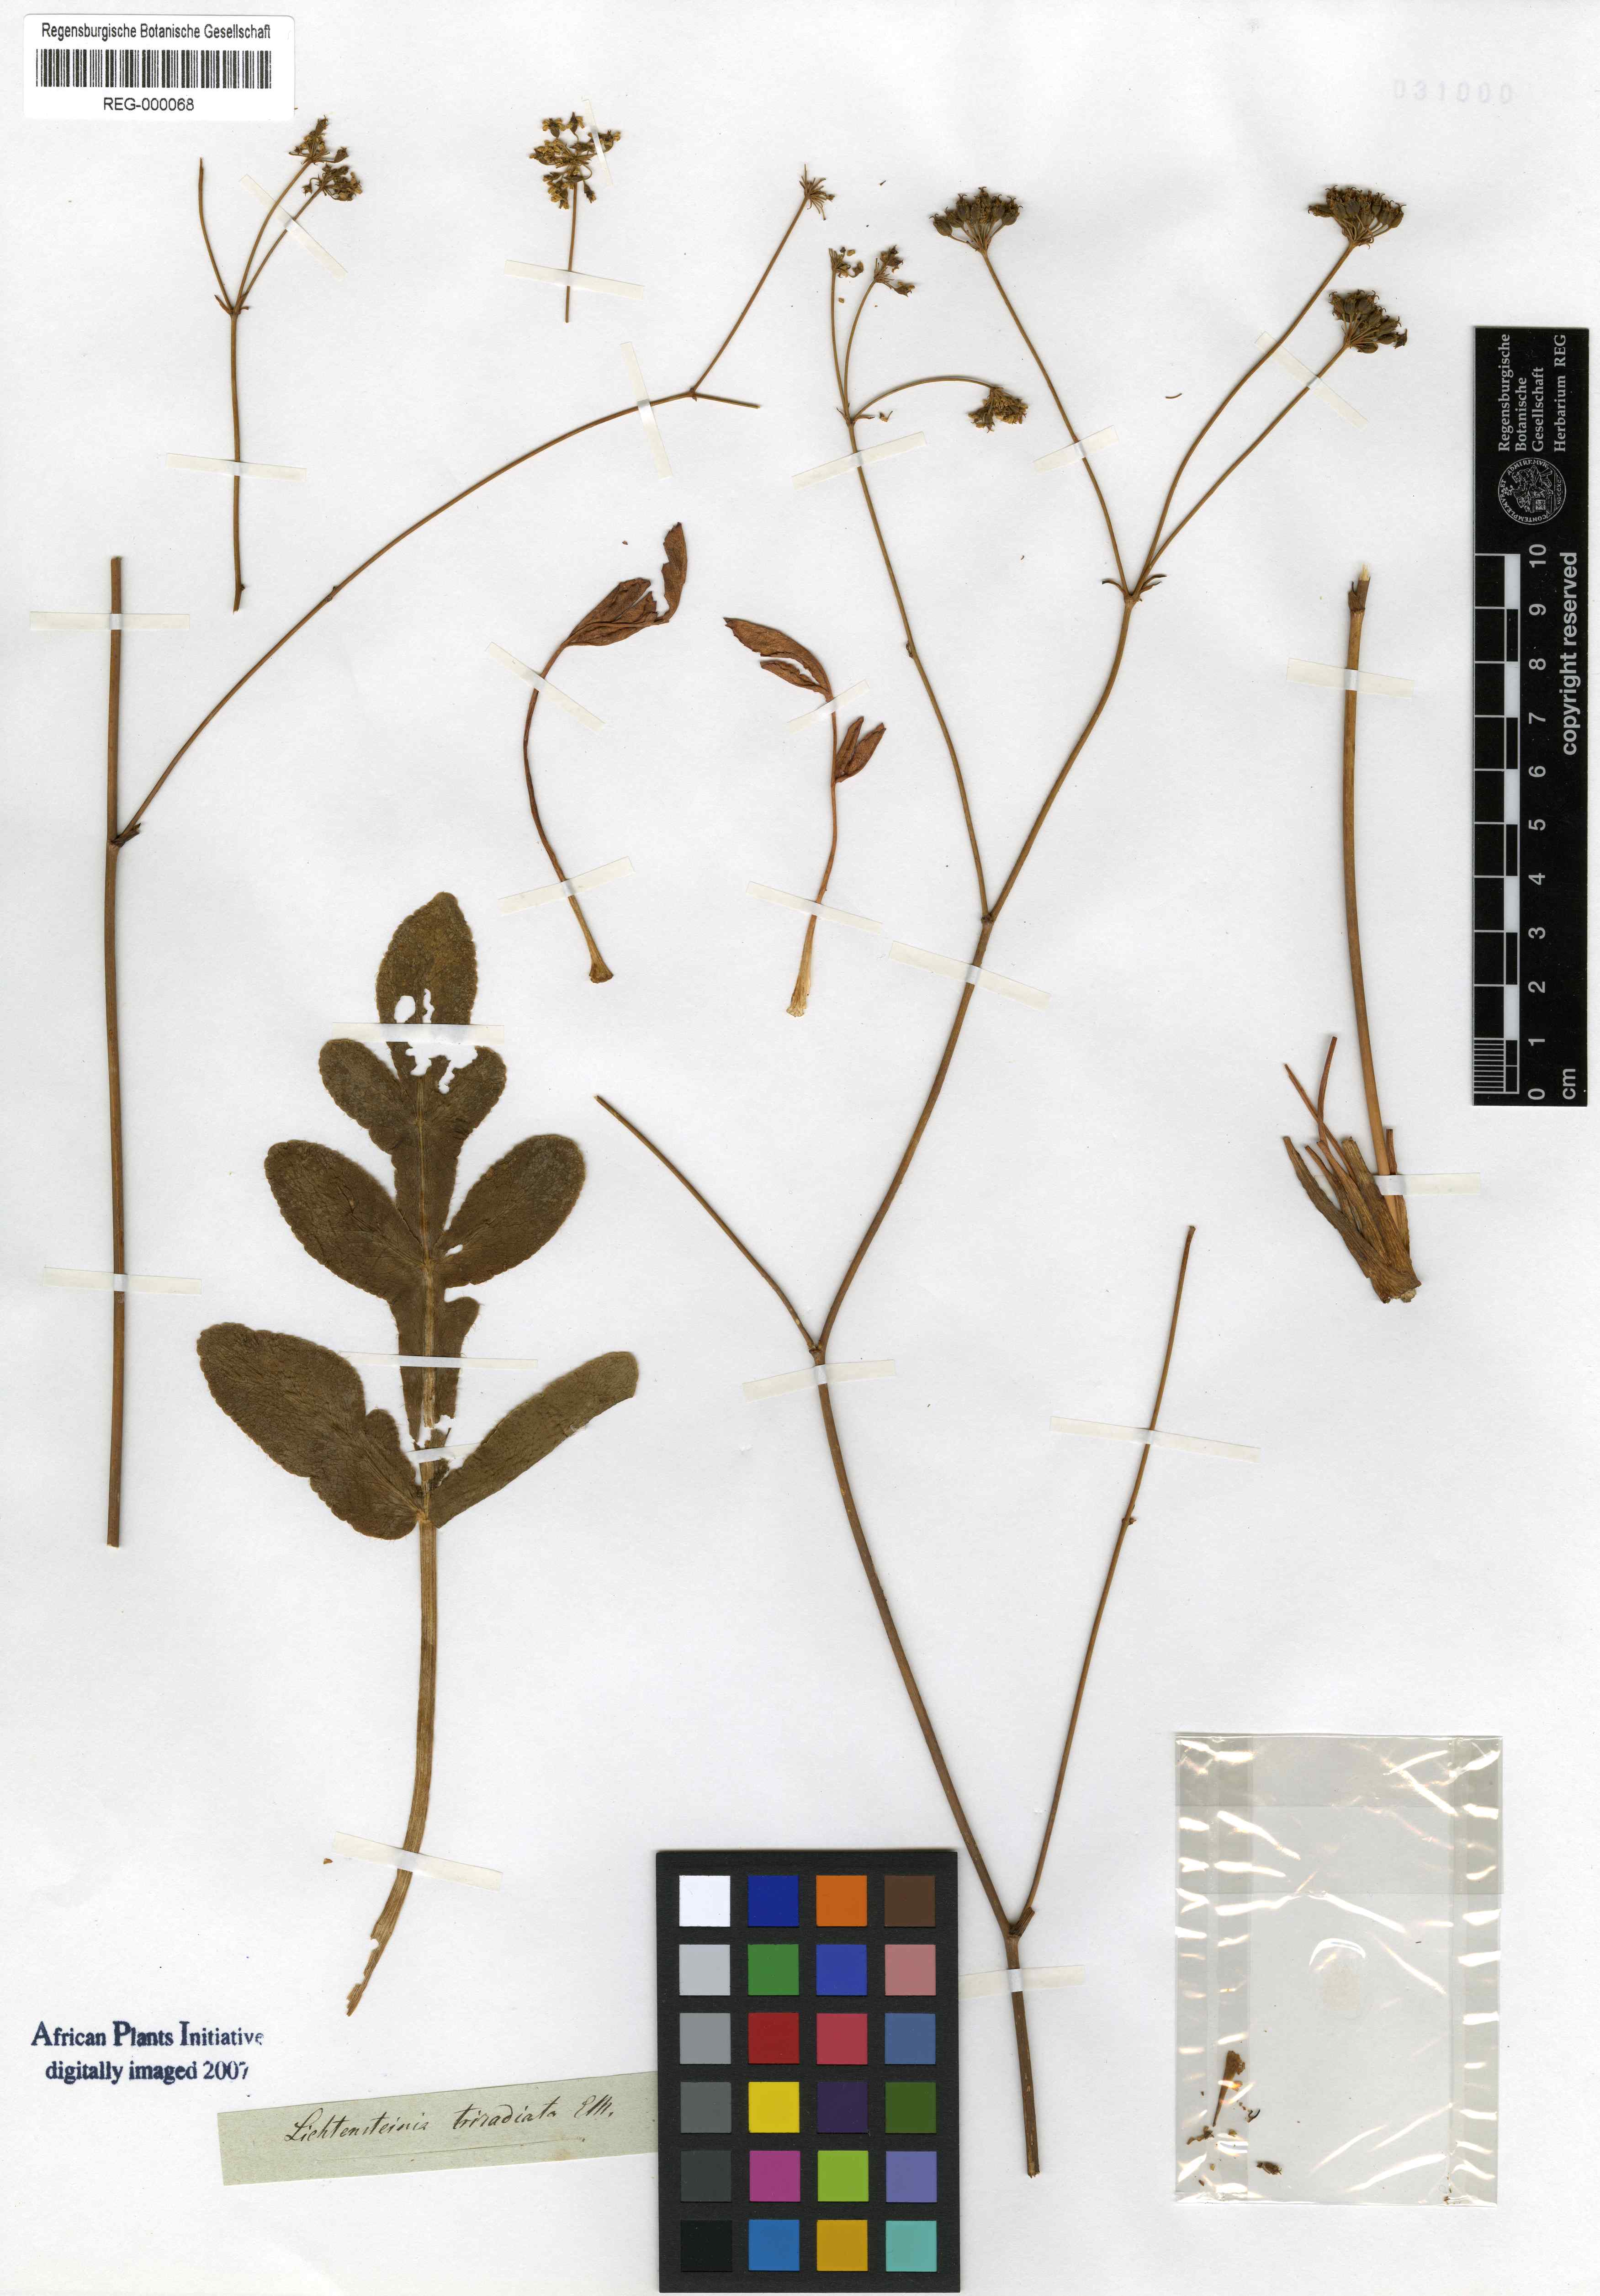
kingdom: Plantae
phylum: Tracheophyta
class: Magnoliopsida
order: Apiales
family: Apiaceae
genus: Lichtensteinia
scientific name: Lichtensteinia obscura
